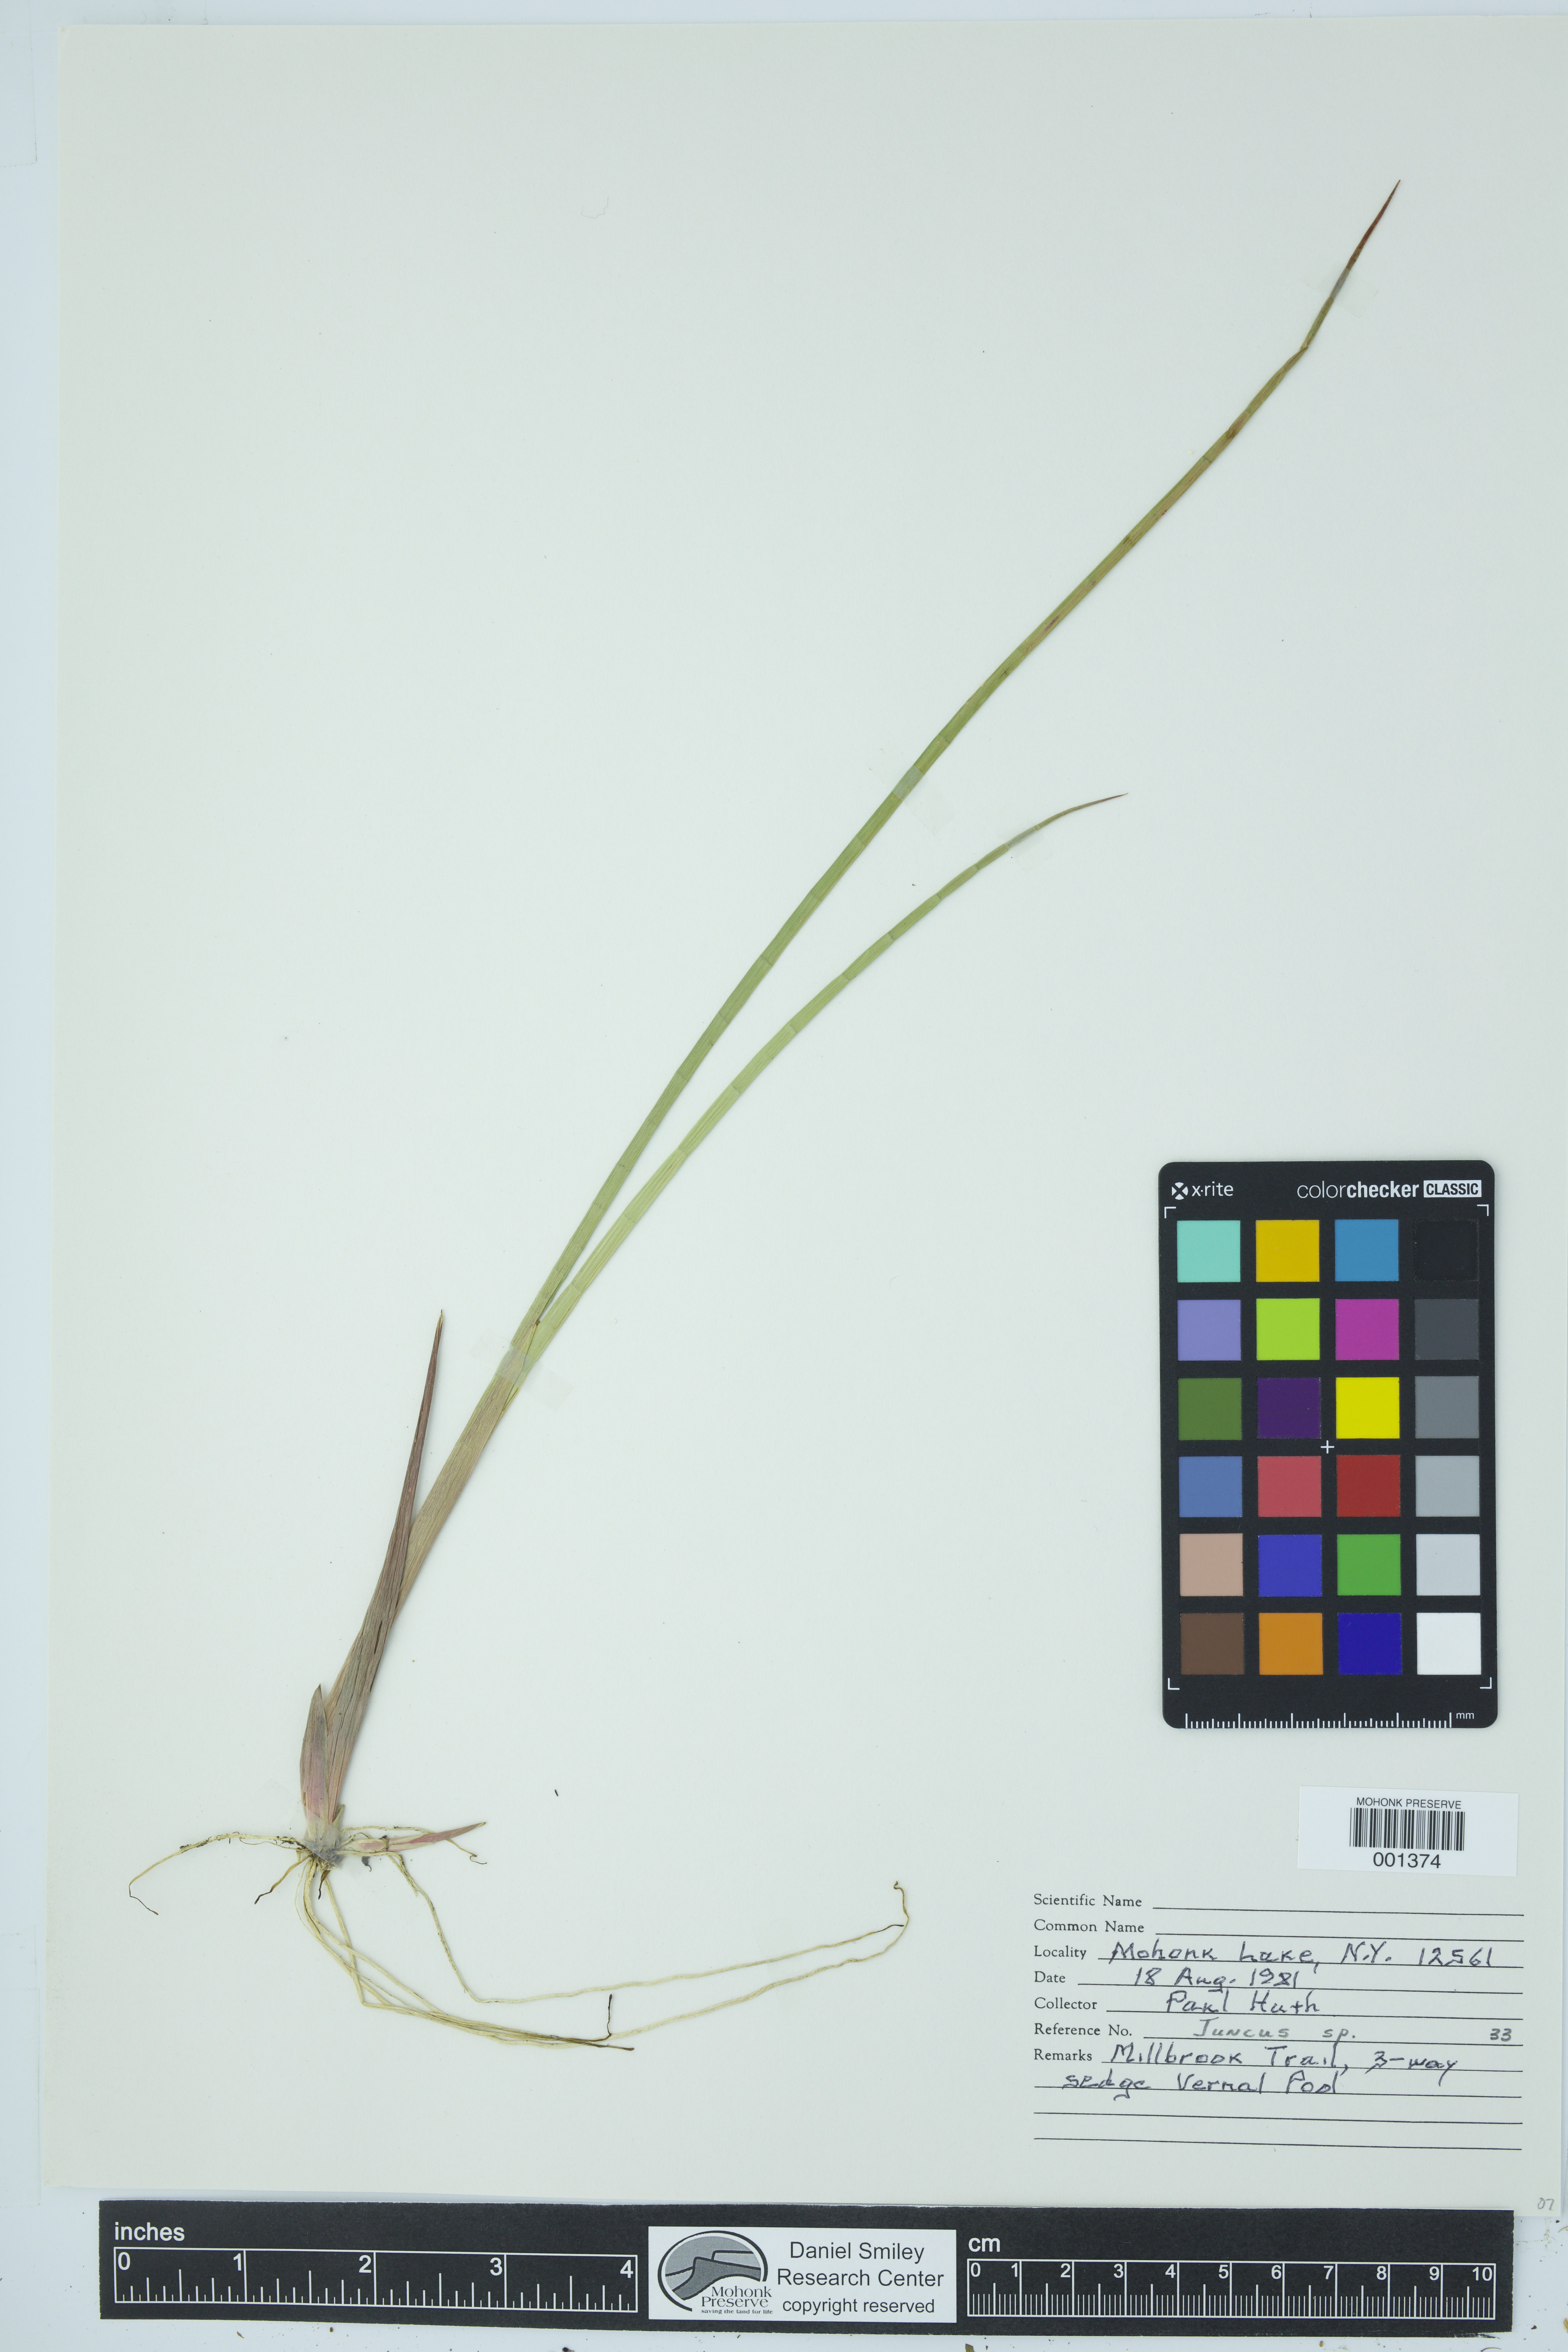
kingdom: Plantae
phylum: Tracheophyta
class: Liliopsida
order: Poales
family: Juncaceae
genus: Juncus
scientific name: Juncus
